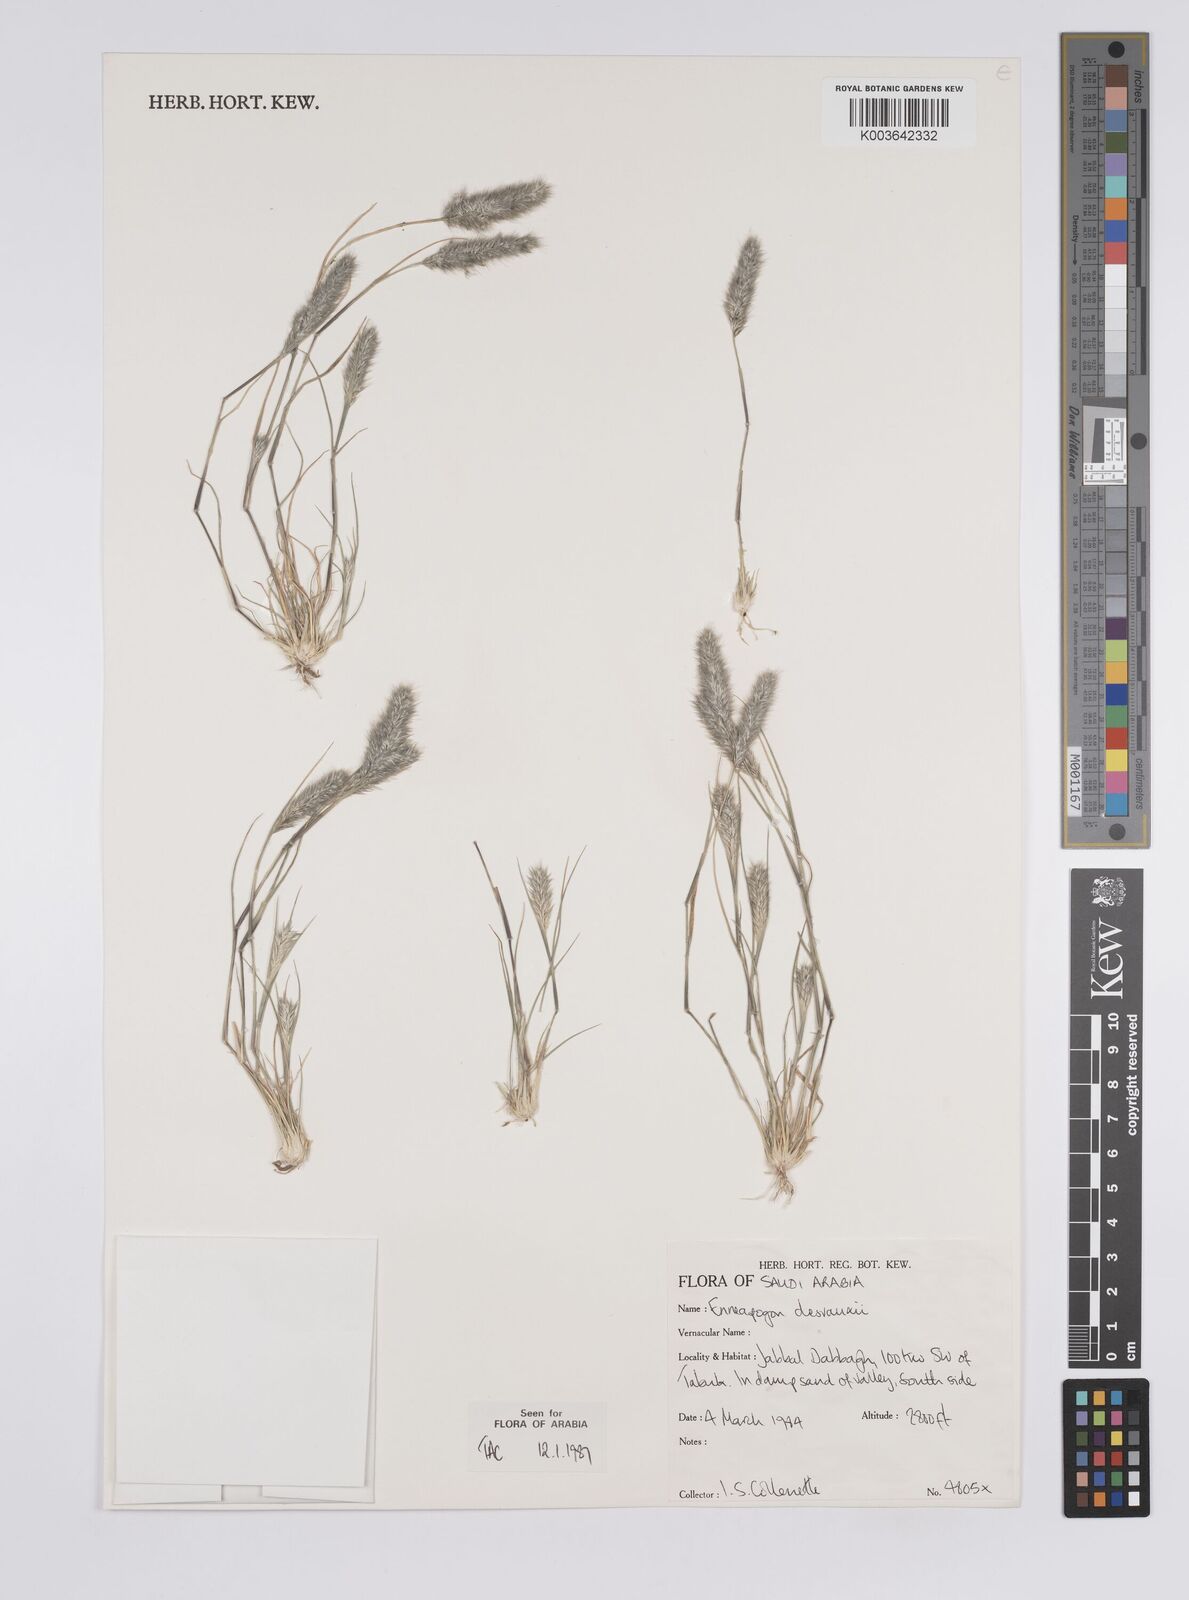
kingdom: Plantae
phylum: Tracheophyta
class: Liliopsida
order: Poales
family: Poaceae
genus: Enneapogon
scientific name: Enneapogon desvauxii
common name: Feather pappus grass
